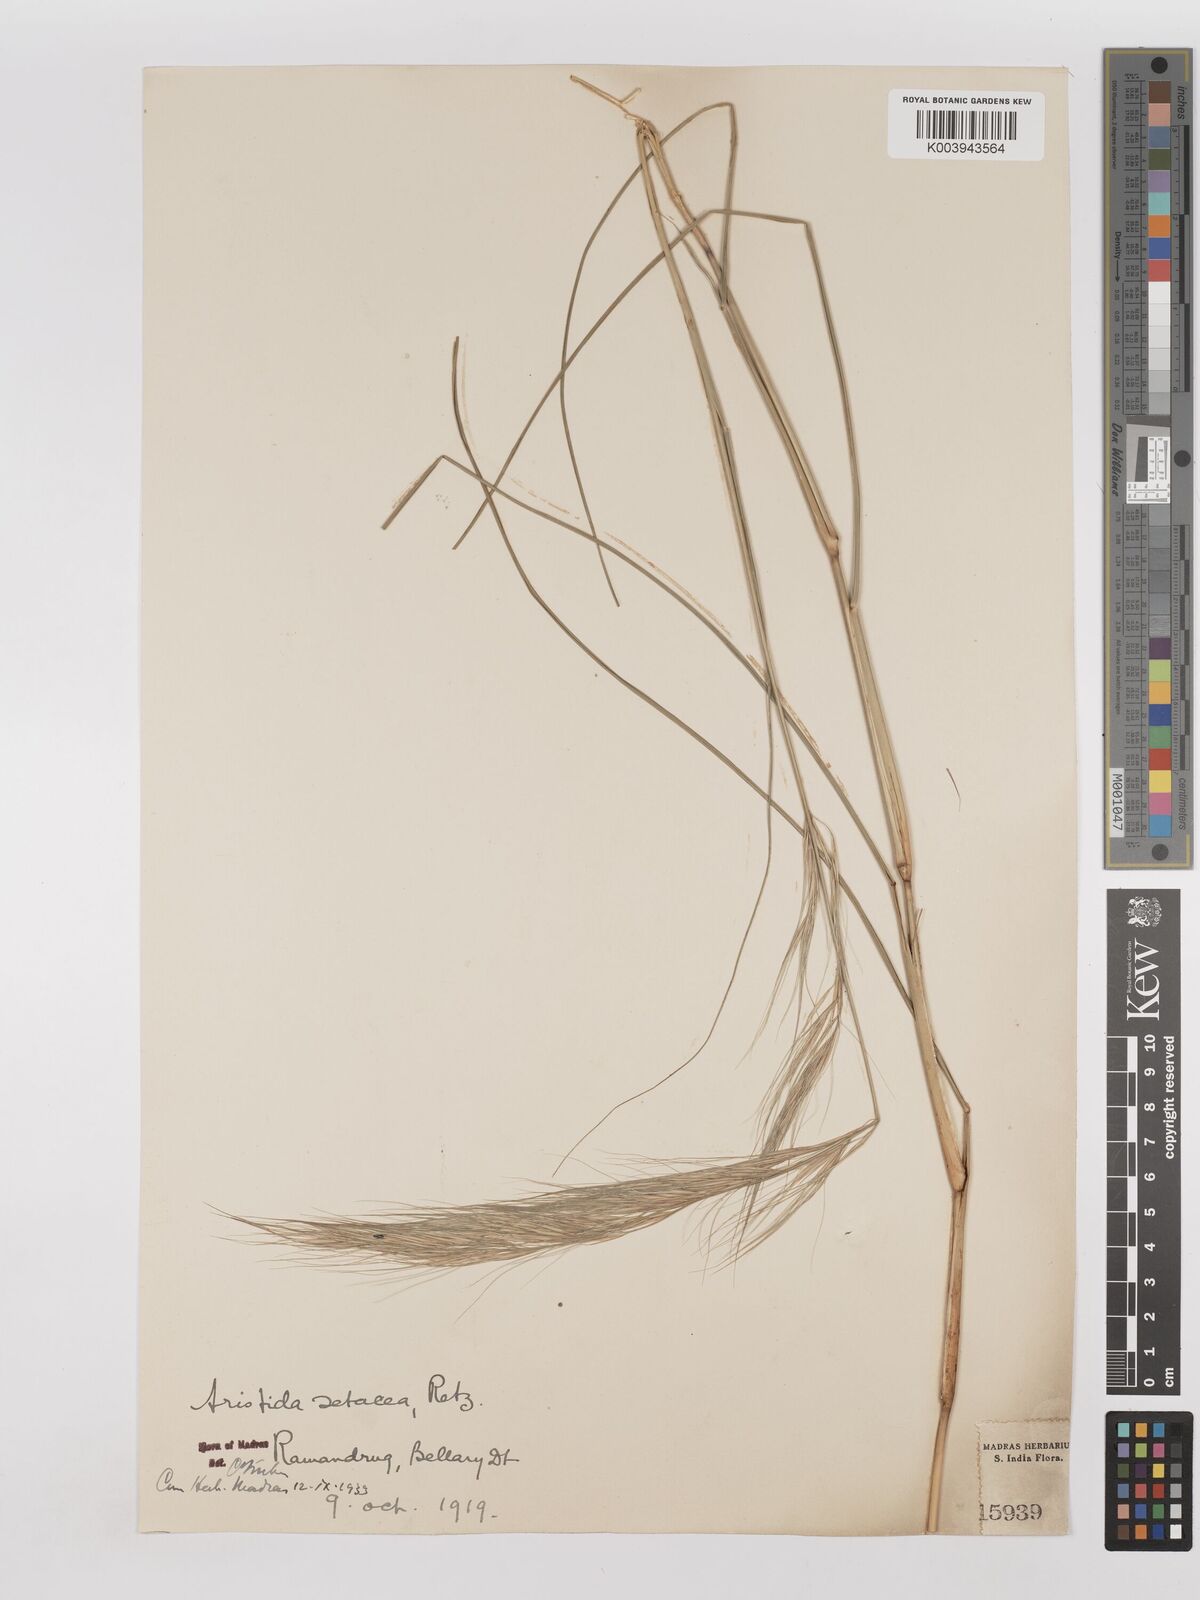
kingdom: Plantae
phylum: Tracheophyta
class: Liliopsida
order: Poales
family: Poaceae
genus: Aristida
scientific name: Aristida setacea
